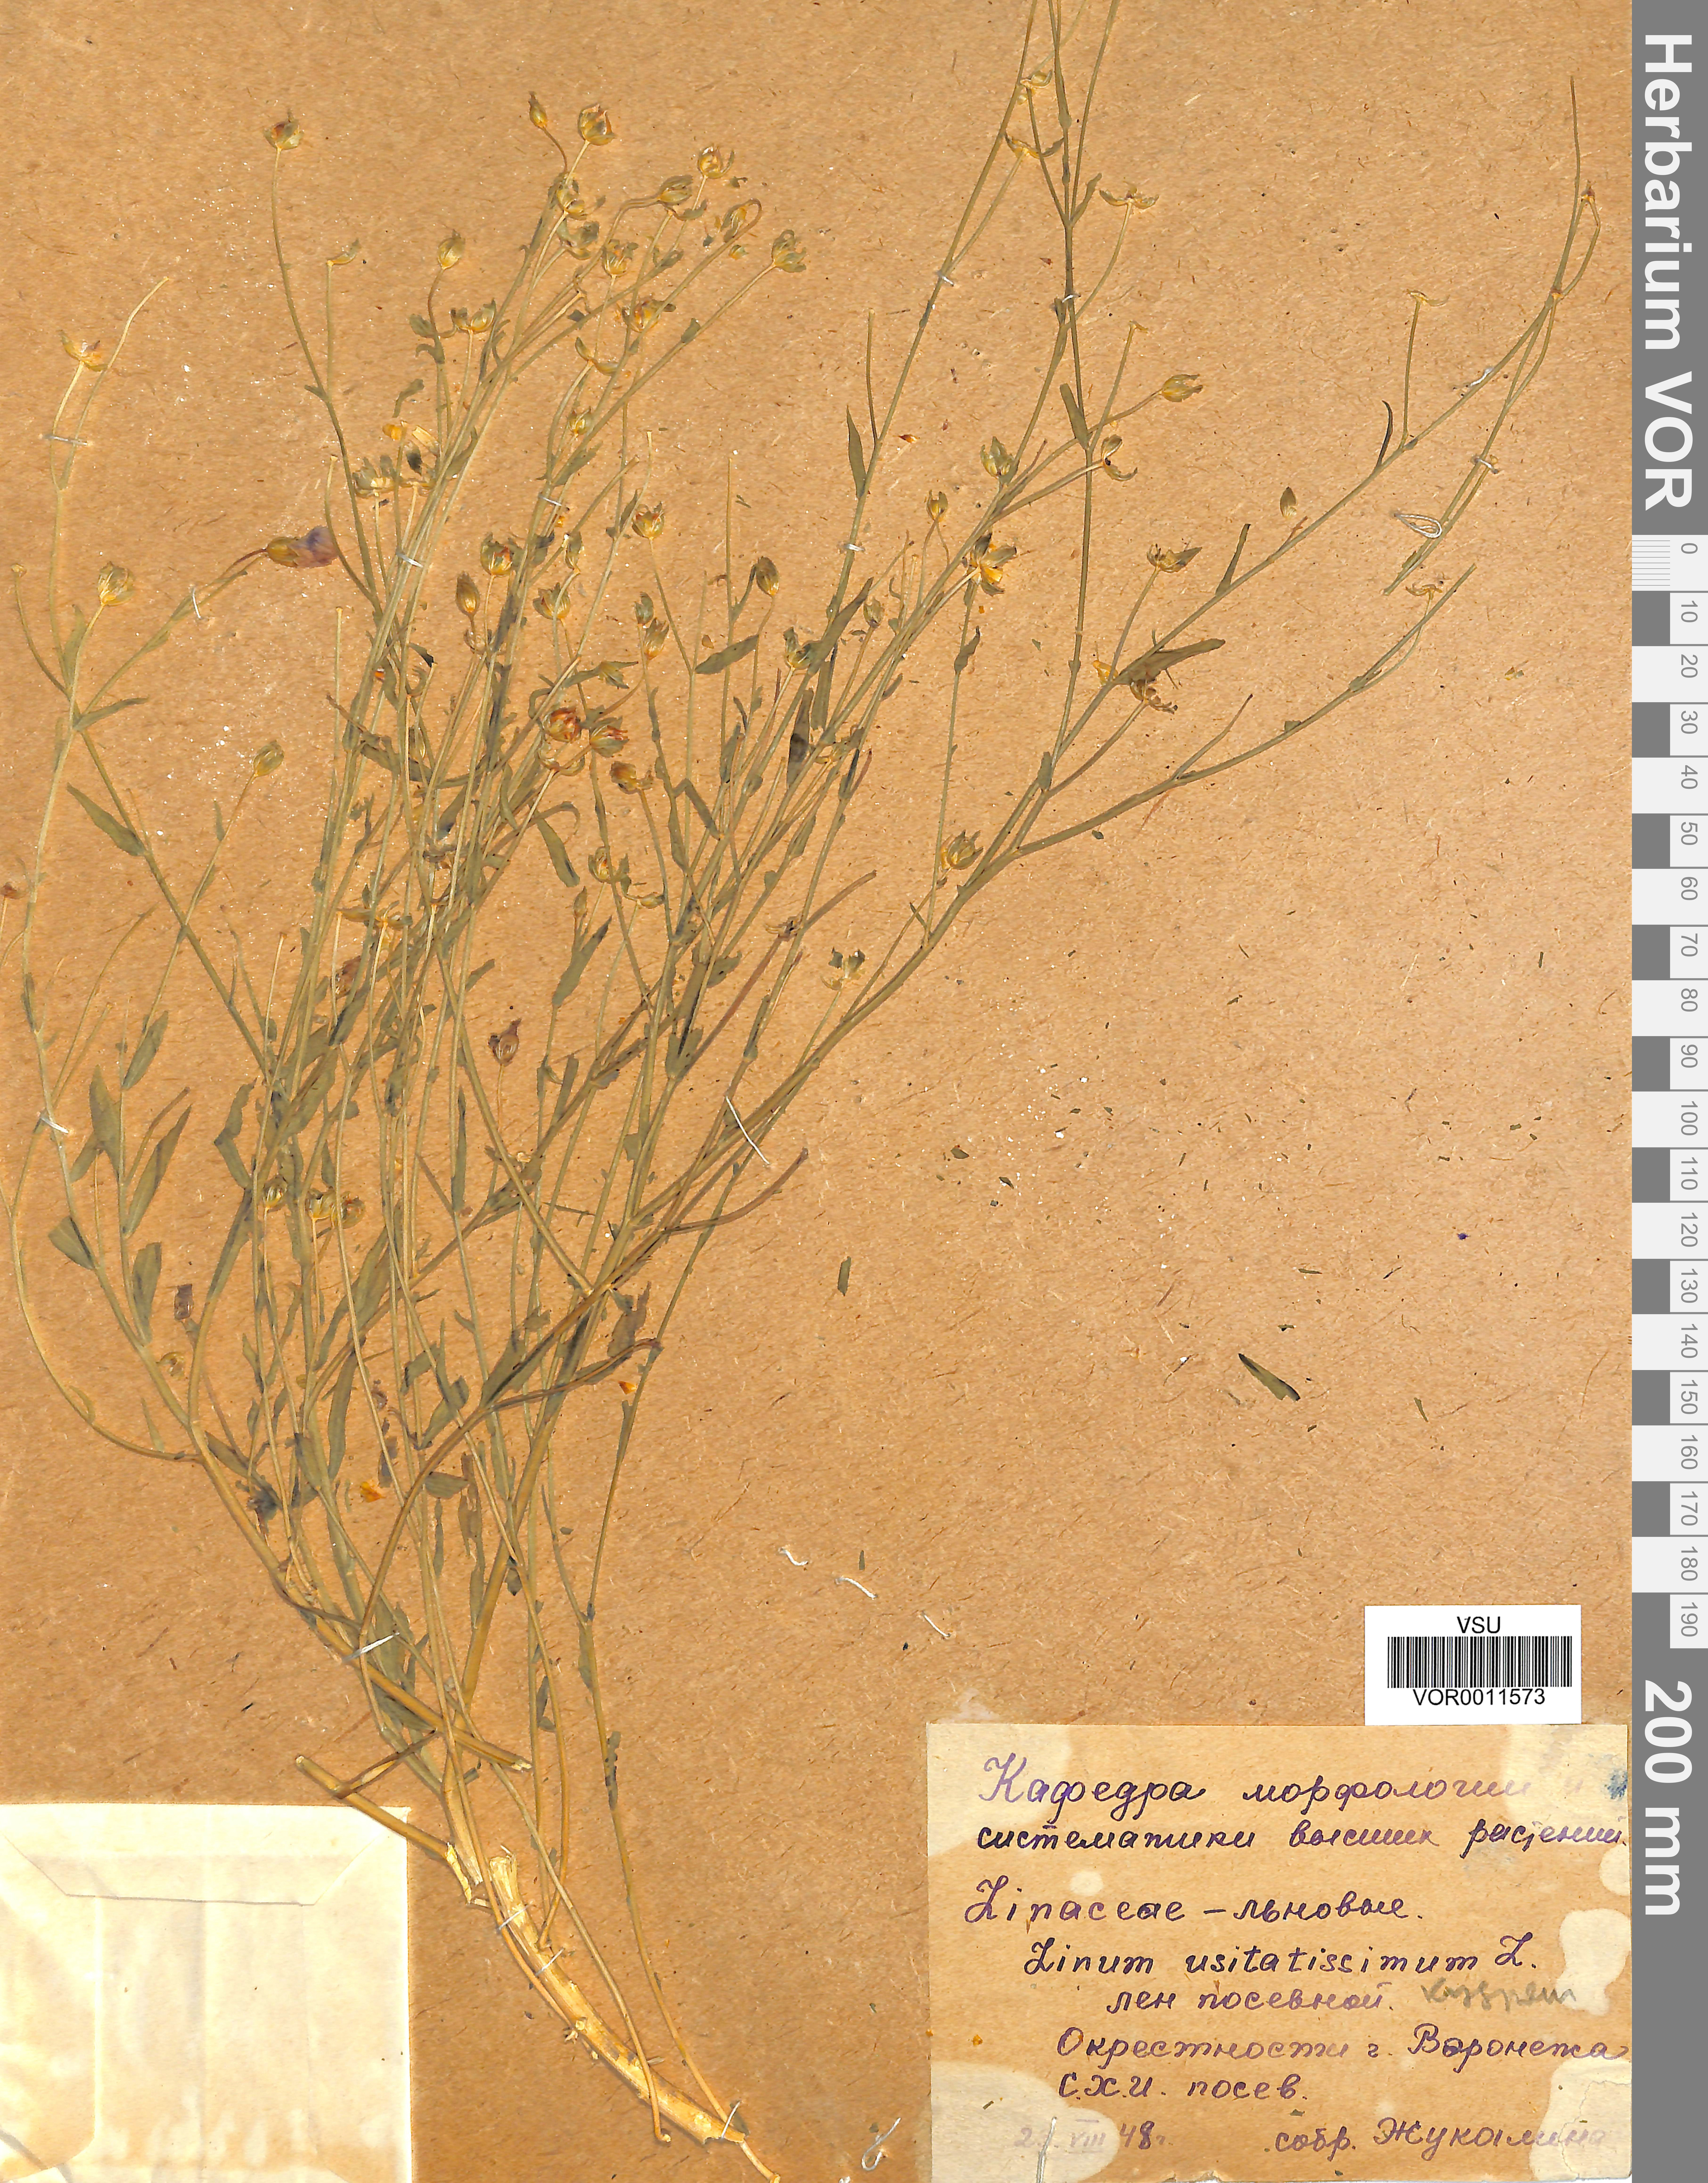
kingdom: Plantae
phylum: Tracheophyta
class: Magnoliopsida
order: Malpighiales
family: Linaceae
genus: Linum
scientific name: Linum usitatissimum
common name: Flax
